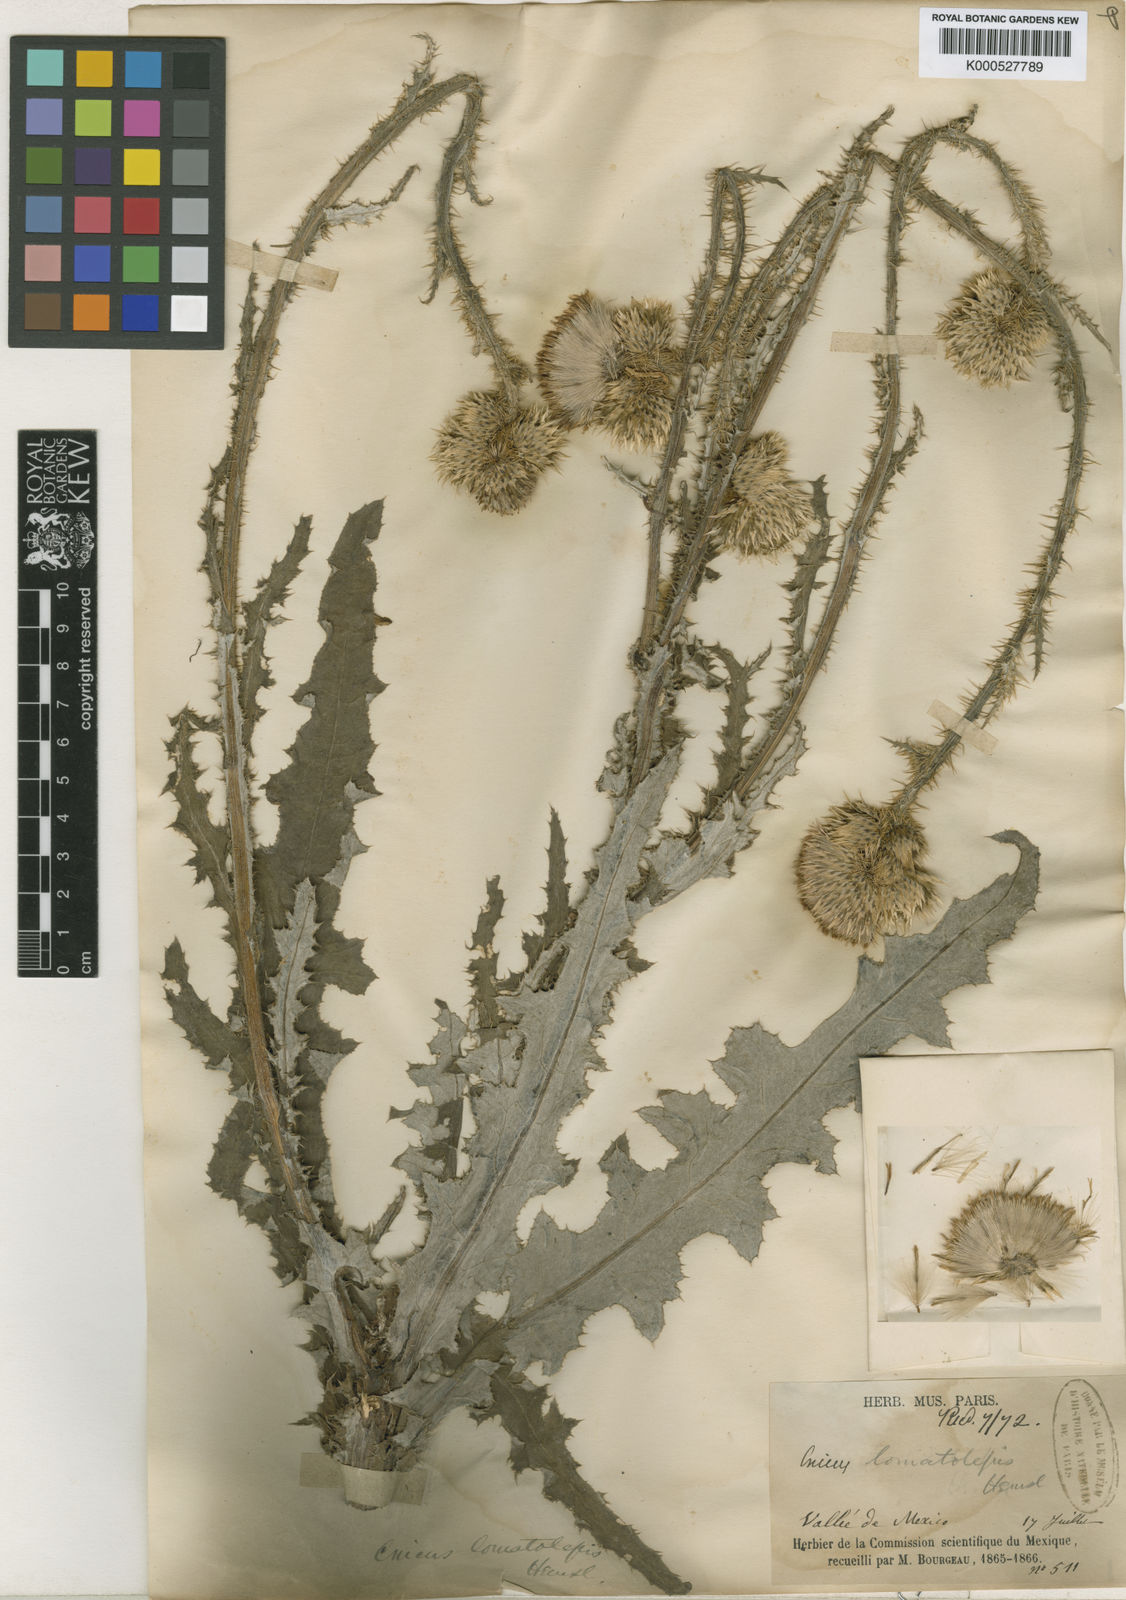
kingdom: Plantae
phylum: Tracheophyta
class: Magnoliopsida
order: Asterales
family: Asteraceae
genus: Cirsium
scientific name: Cirsium lomatolepis
